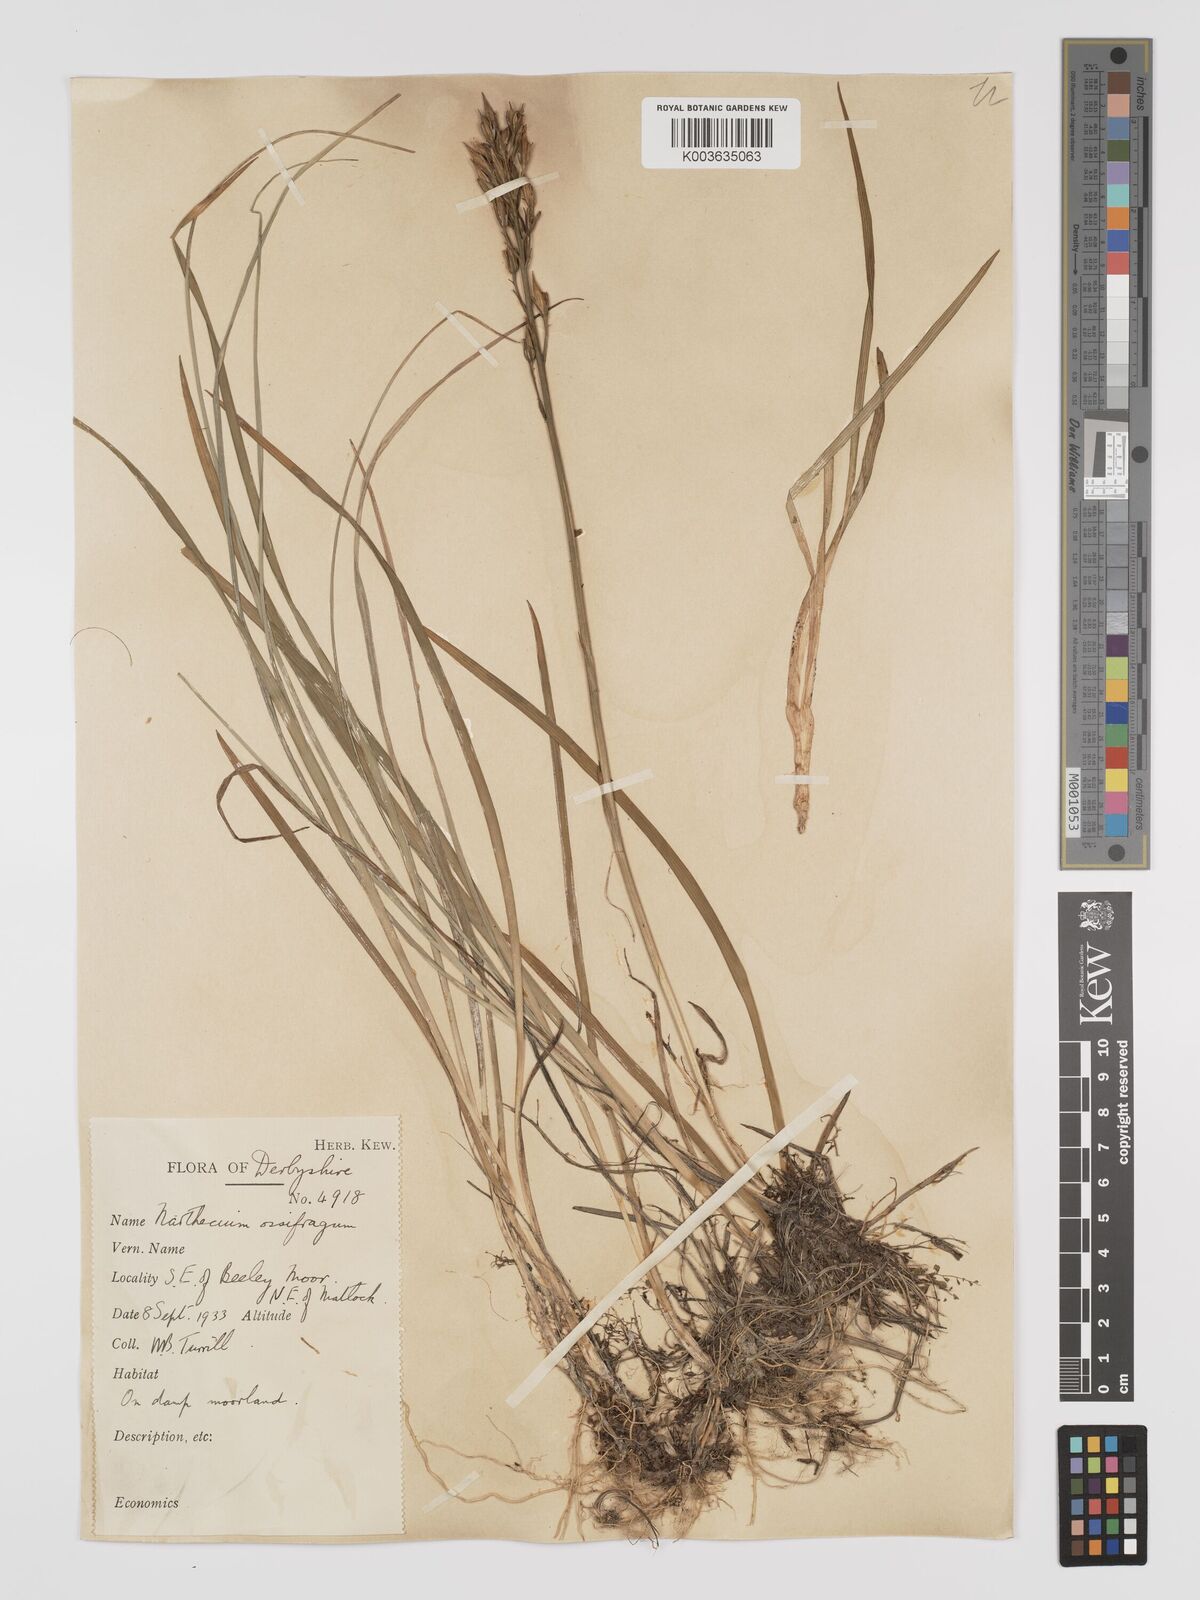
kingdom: Plantae
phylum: Tracheophyta
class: Liliopsida
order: Dioscoreales
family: Nartheciaceae
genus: Narthecium
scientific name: Narthecium
